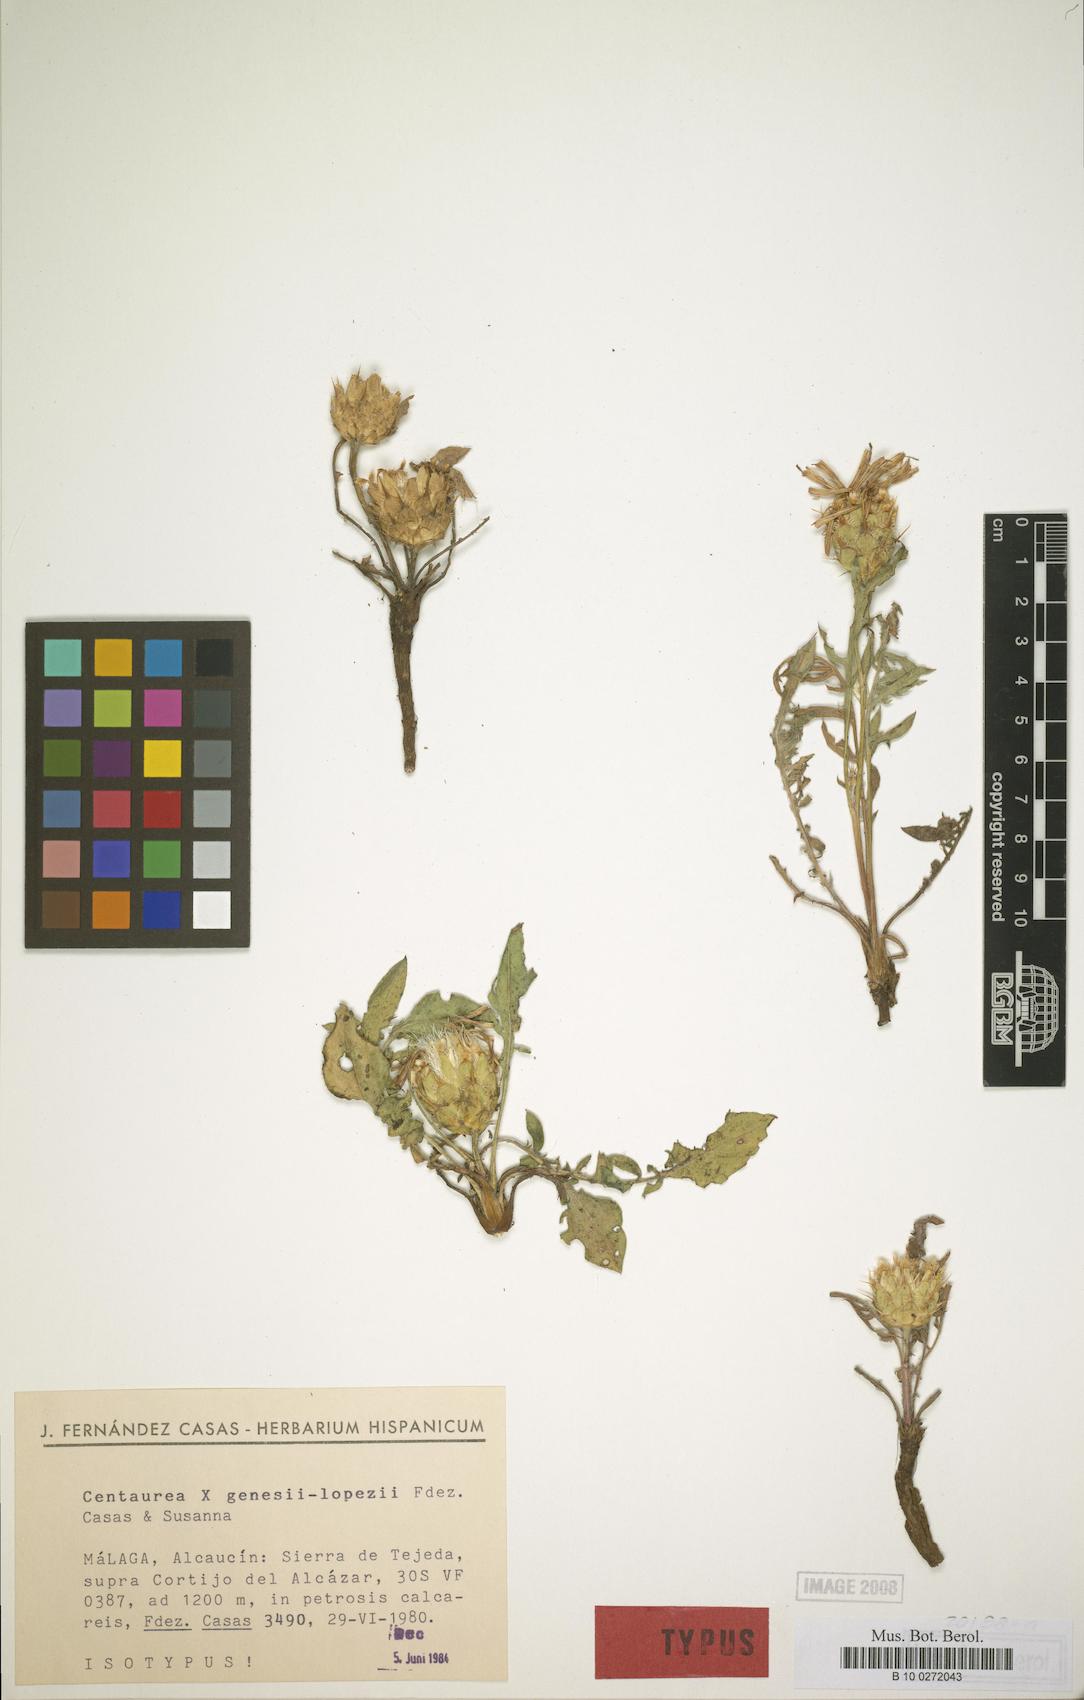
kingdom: Plantae
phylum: Tracheophyta
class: Magnoliopsida
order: Asterales
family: Asteraceae
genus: Centaurea
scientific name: Centaurea genesii-lopezii
